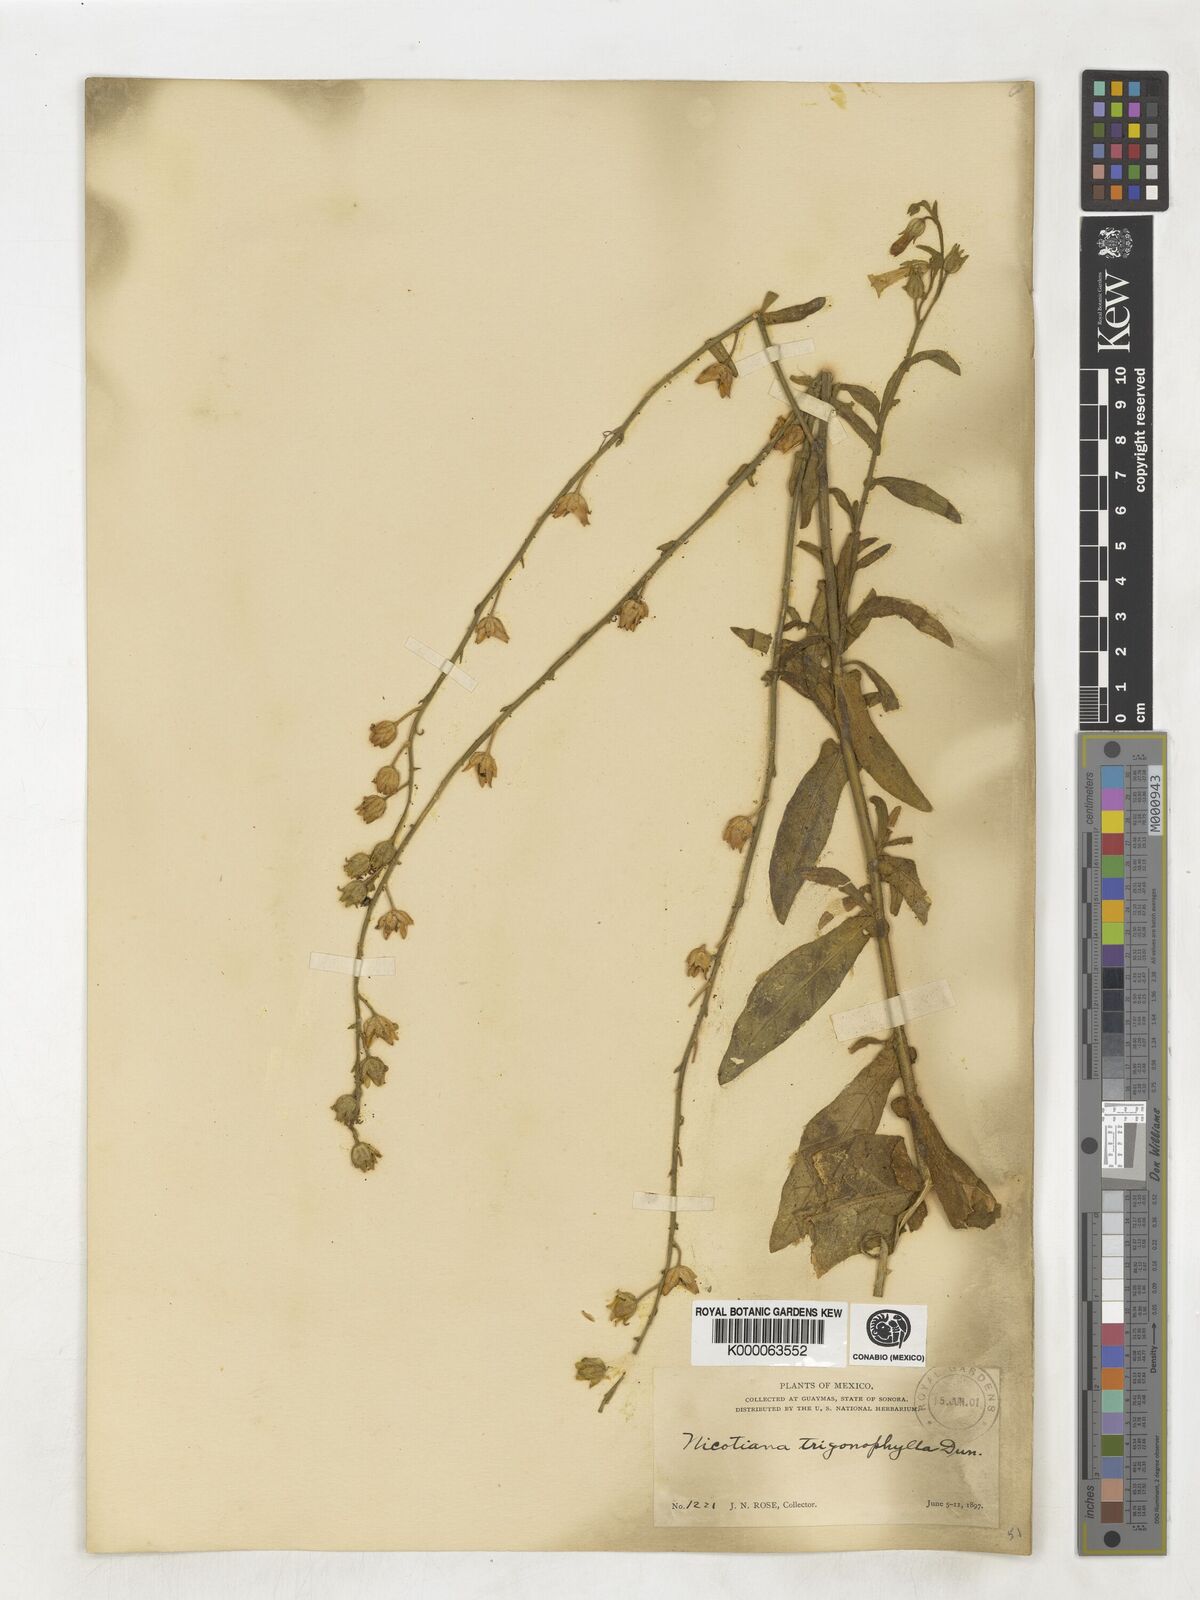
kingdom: Plantae
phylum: Tracheophyta
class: Magnoliopsida
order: Solanales
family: Solanaceae
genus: Nicotiana
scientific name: Nicotiana obtusifolia
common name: Desert tobacco
